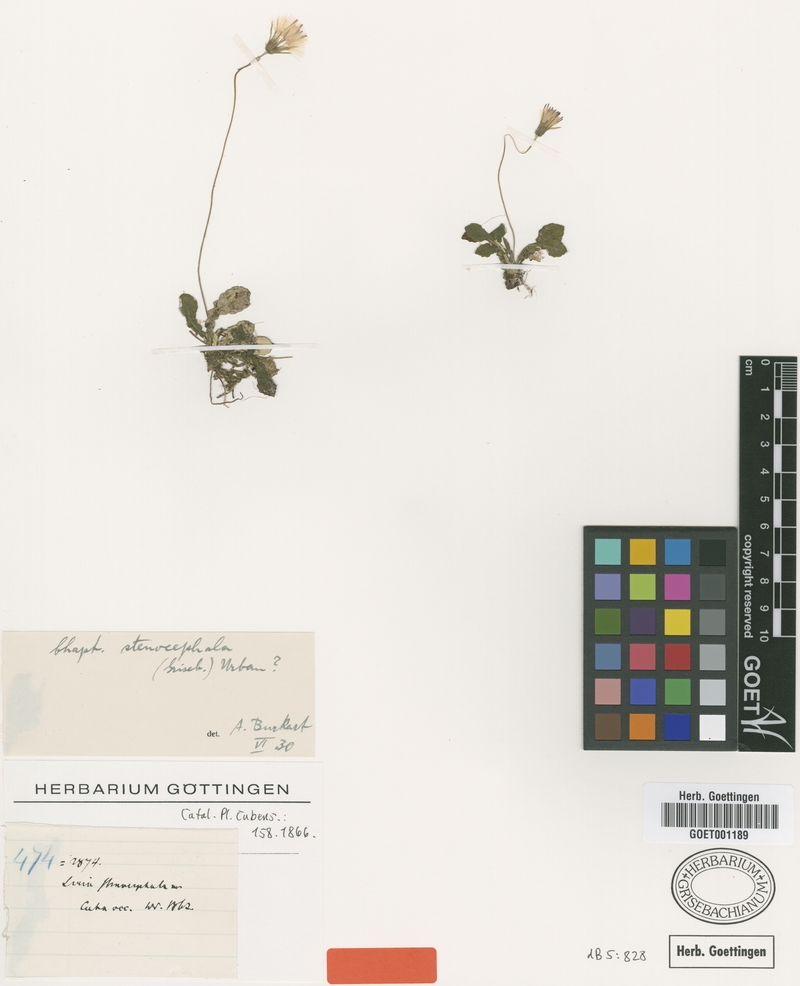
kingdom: Plantae
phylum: Tracheophyta
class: Magnoliopsida
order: Asterales
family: Asteraceae
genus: Chaptalia
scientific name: Chaptalia stenocephala
